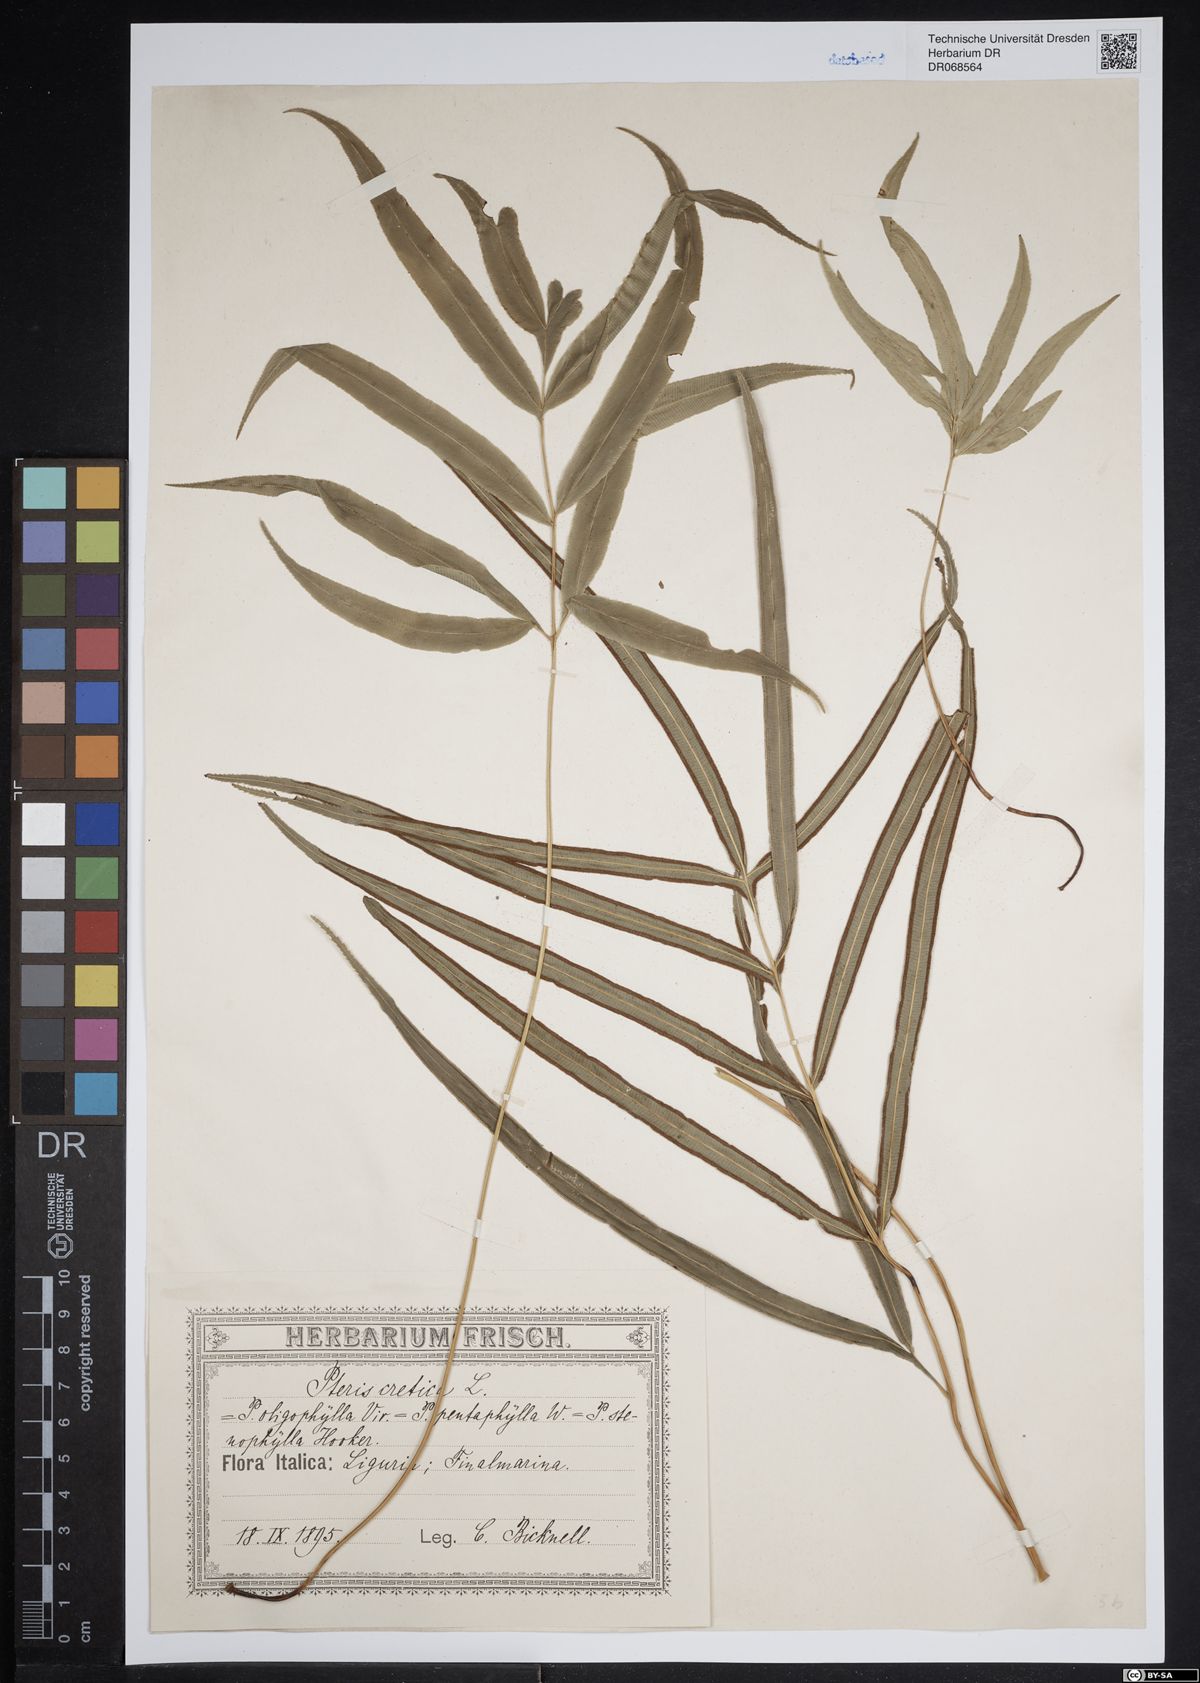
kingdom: Plantae
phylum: Tracheophyta
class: Polypodiopsida
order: Polypodiales
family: Pteridaceae
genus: Pteris
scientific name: Pteris cretica
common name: Ribbon fern
